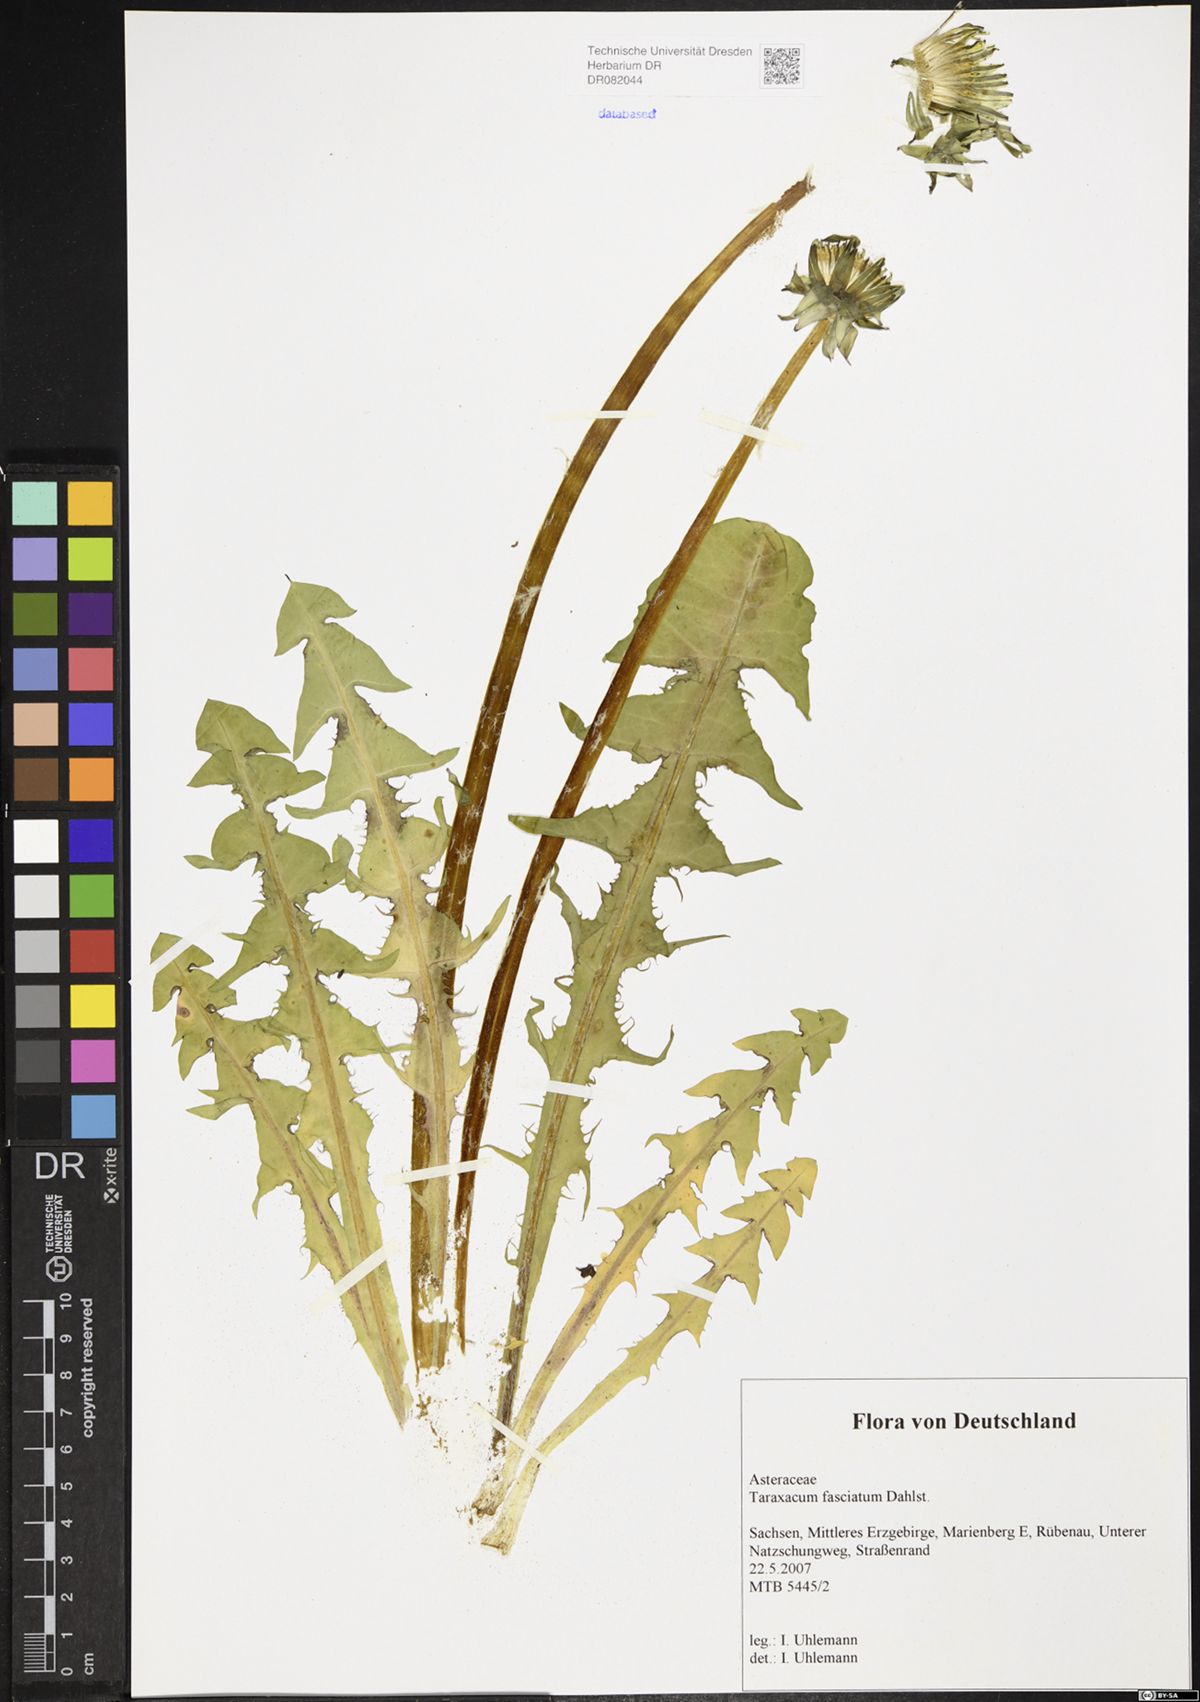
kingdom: Plantae
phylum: Tracheophyta
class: Magnoliopsida
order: Asterales
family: Asteraceae
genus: Taraxacum
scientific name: Taraxacum fasciatum
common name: Dense-bracted dandelion
